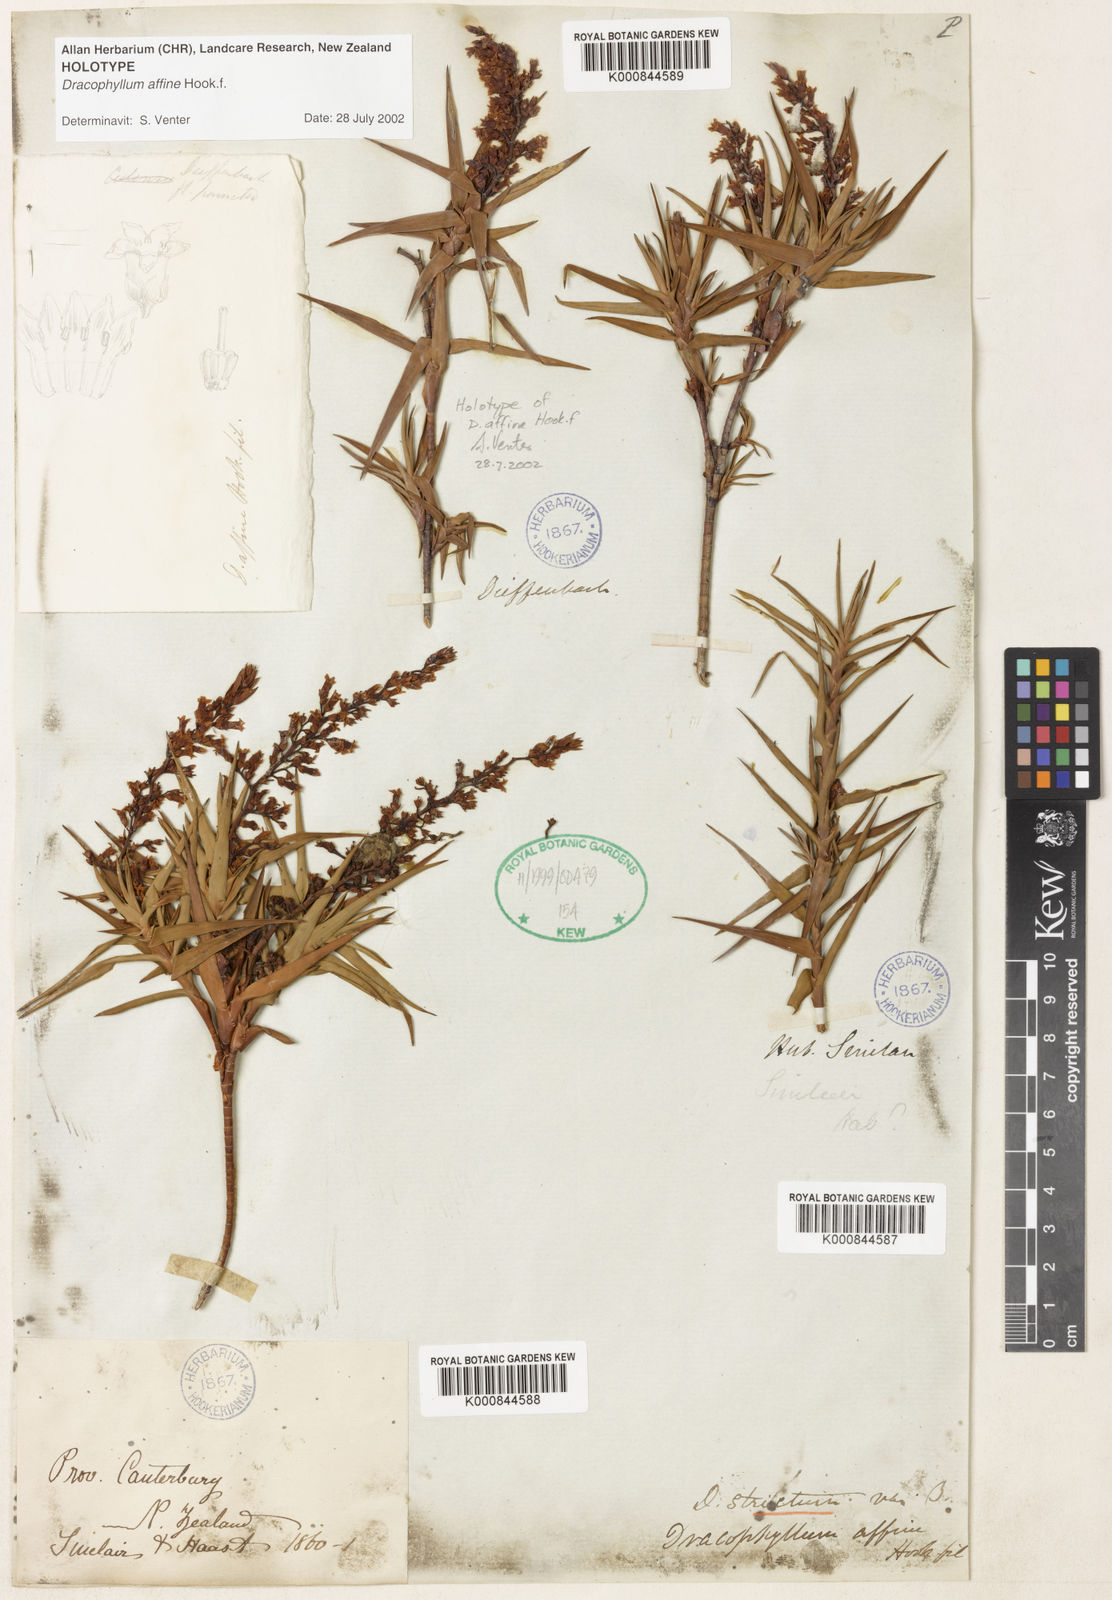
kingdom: Plantae
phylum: Tracheophyta
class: Magnoliopsida
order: Ericales
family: Ericaceae
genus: Dracophyllum
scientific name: Dracophyllum strictum
